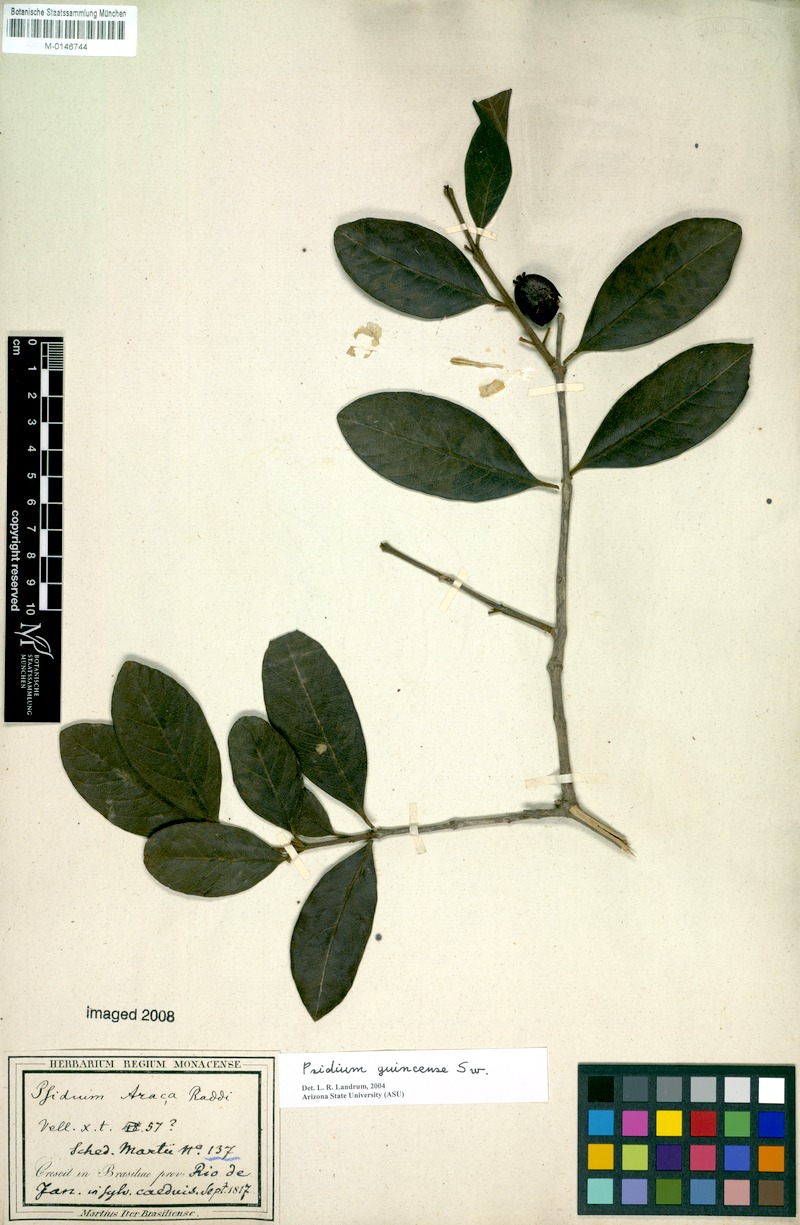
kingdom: Plantae
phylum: Tracheophyta
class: Magnoliopsida
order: Myrtales
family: Myrtaceae
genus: Psidium
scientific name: Psidium guineense
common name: Brazilian guava
